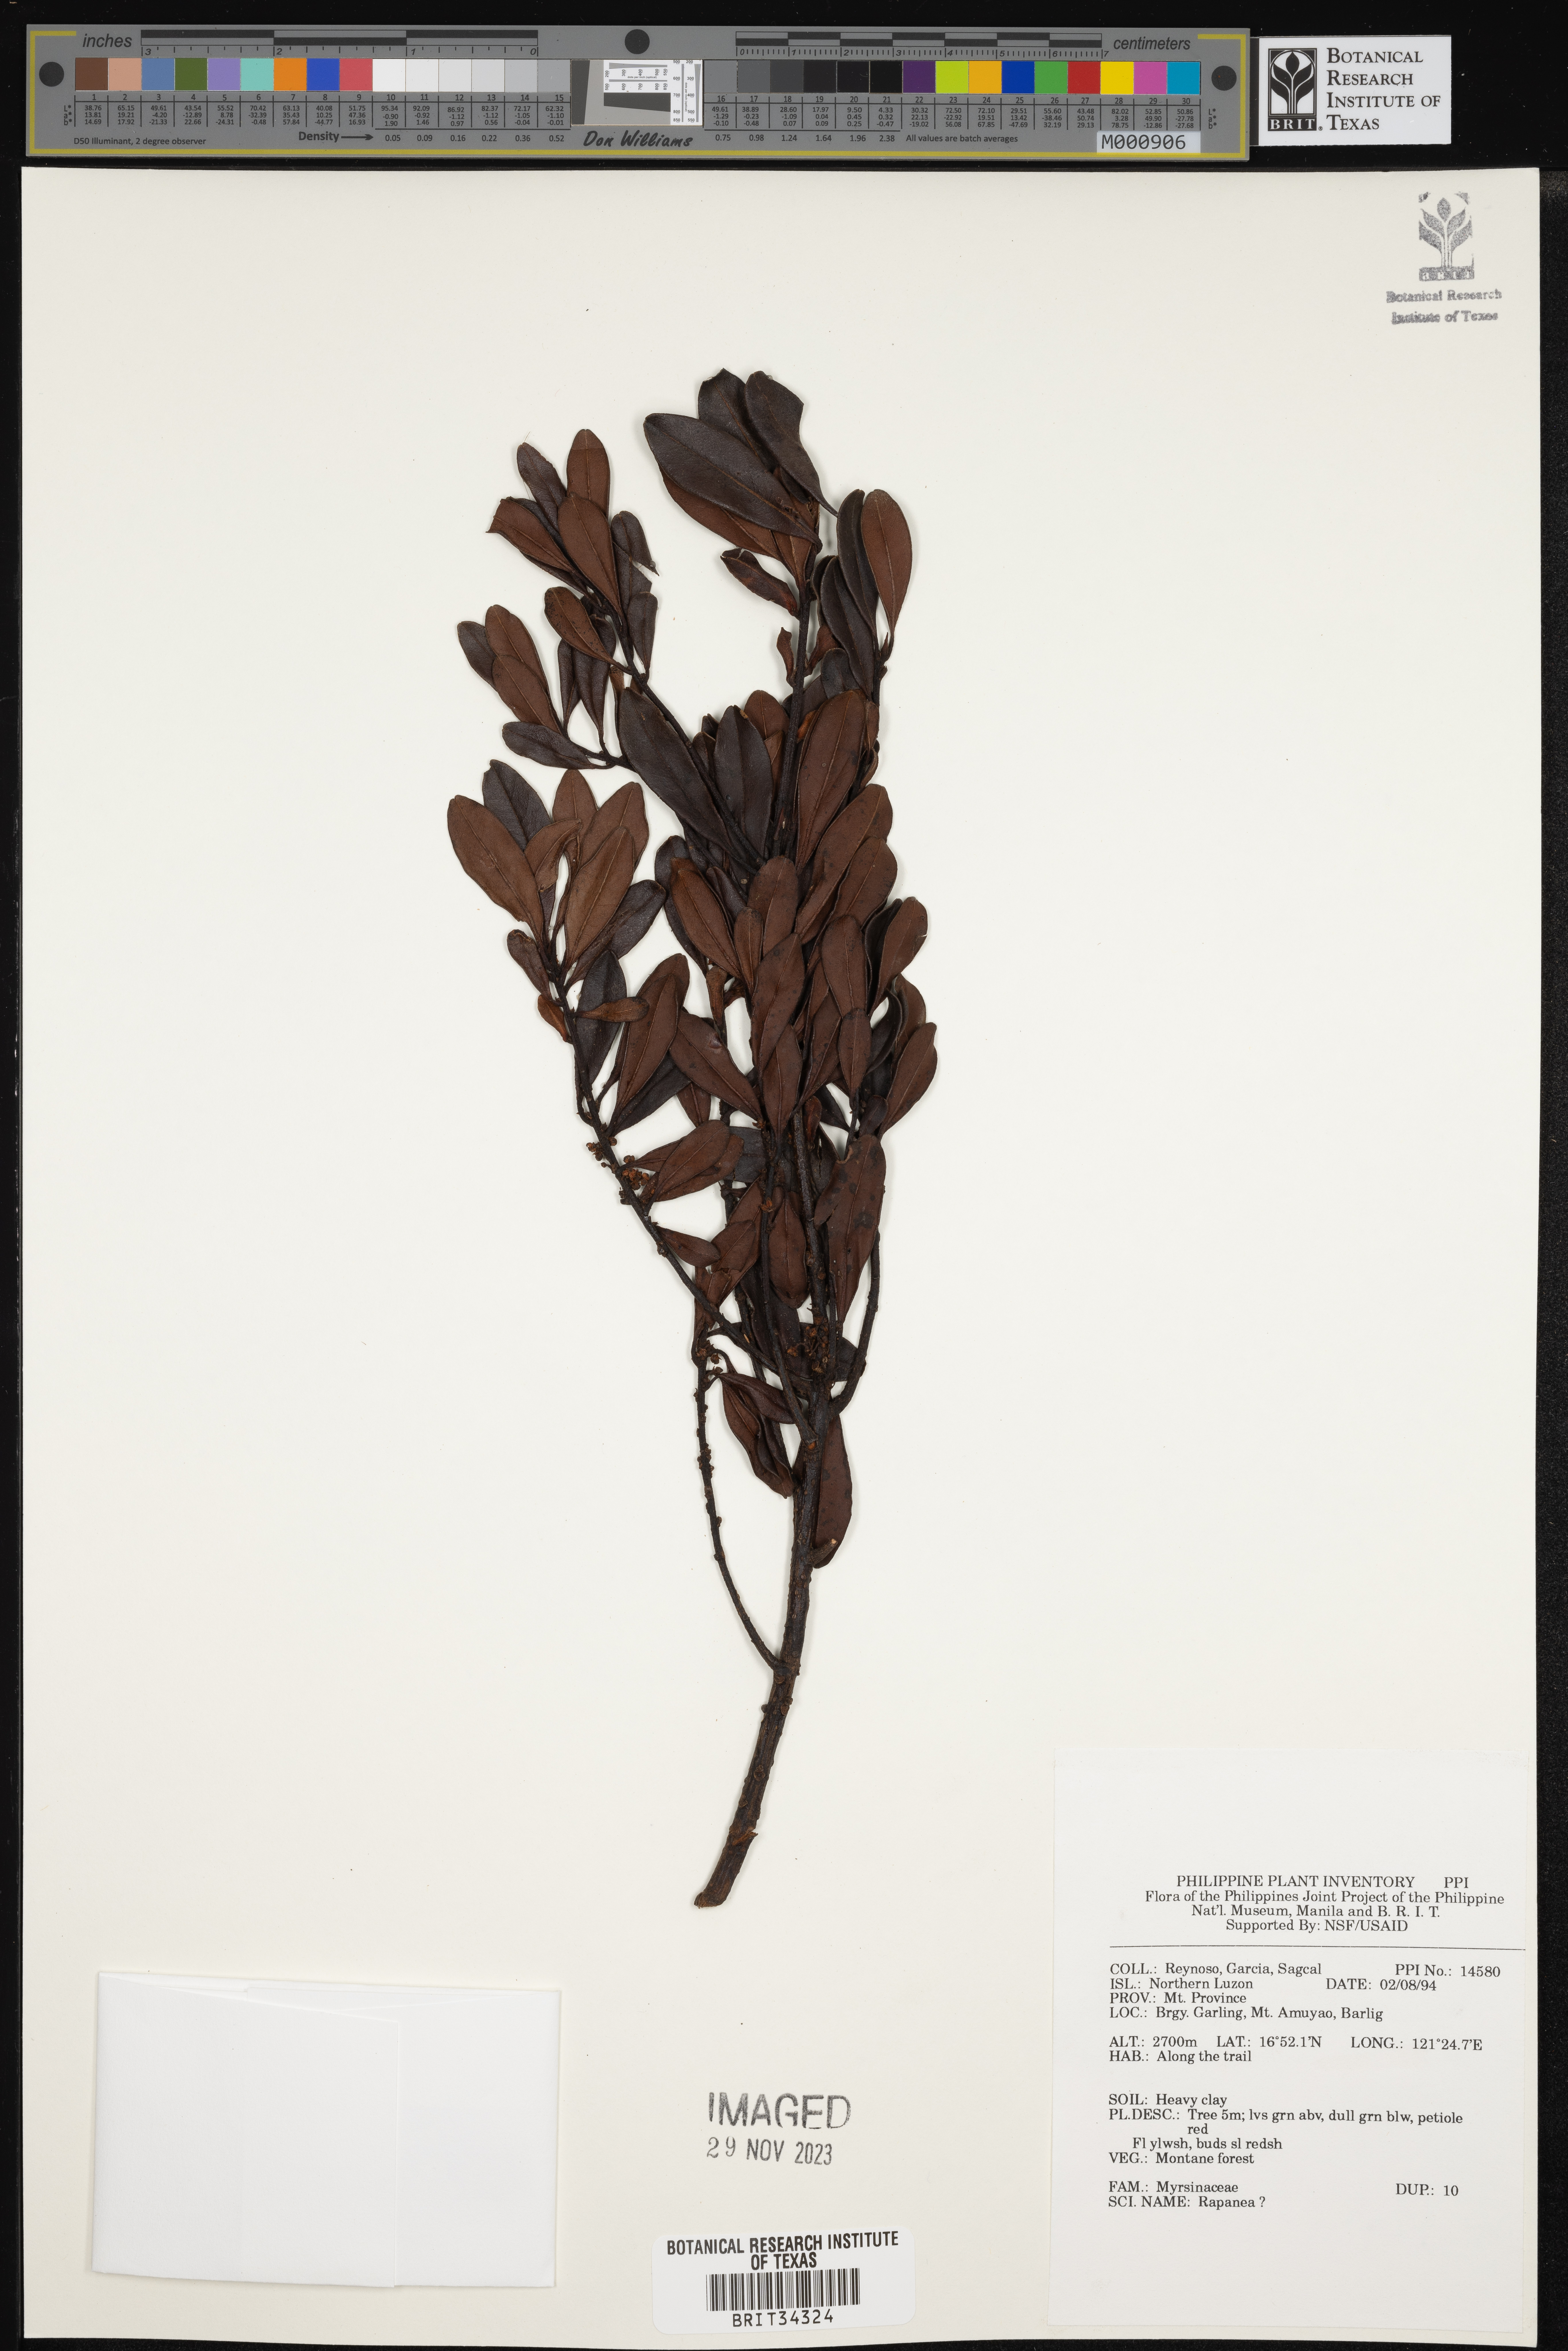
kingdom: Plantae
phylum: Tracheophyta
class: Magnoliopsida
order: Ericales
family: Primulaceae
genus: Myrsine
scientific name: Myrsine
